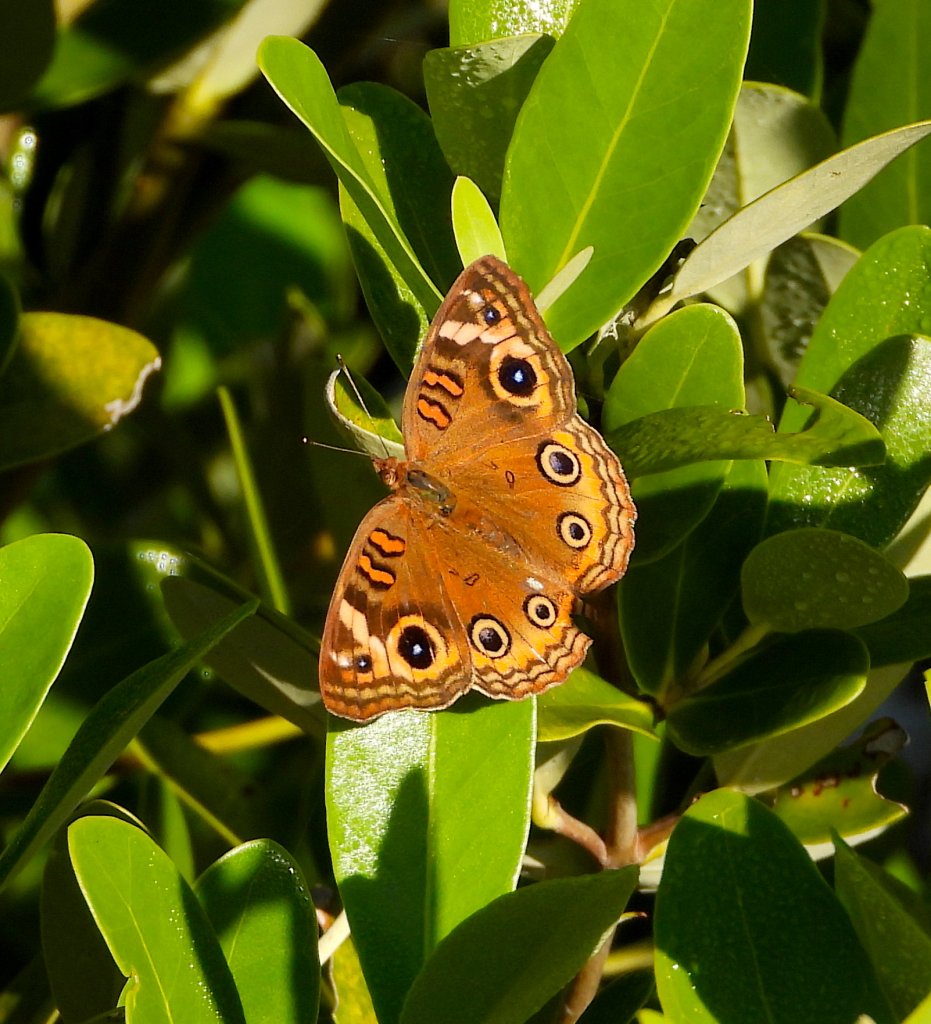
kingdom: Animalia
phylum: Arthropoda
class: Insecta
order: Lepidoptera
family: Nymphalidae
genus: Junonia
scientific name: Junonia evarete
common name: Mangrove Buckeye
